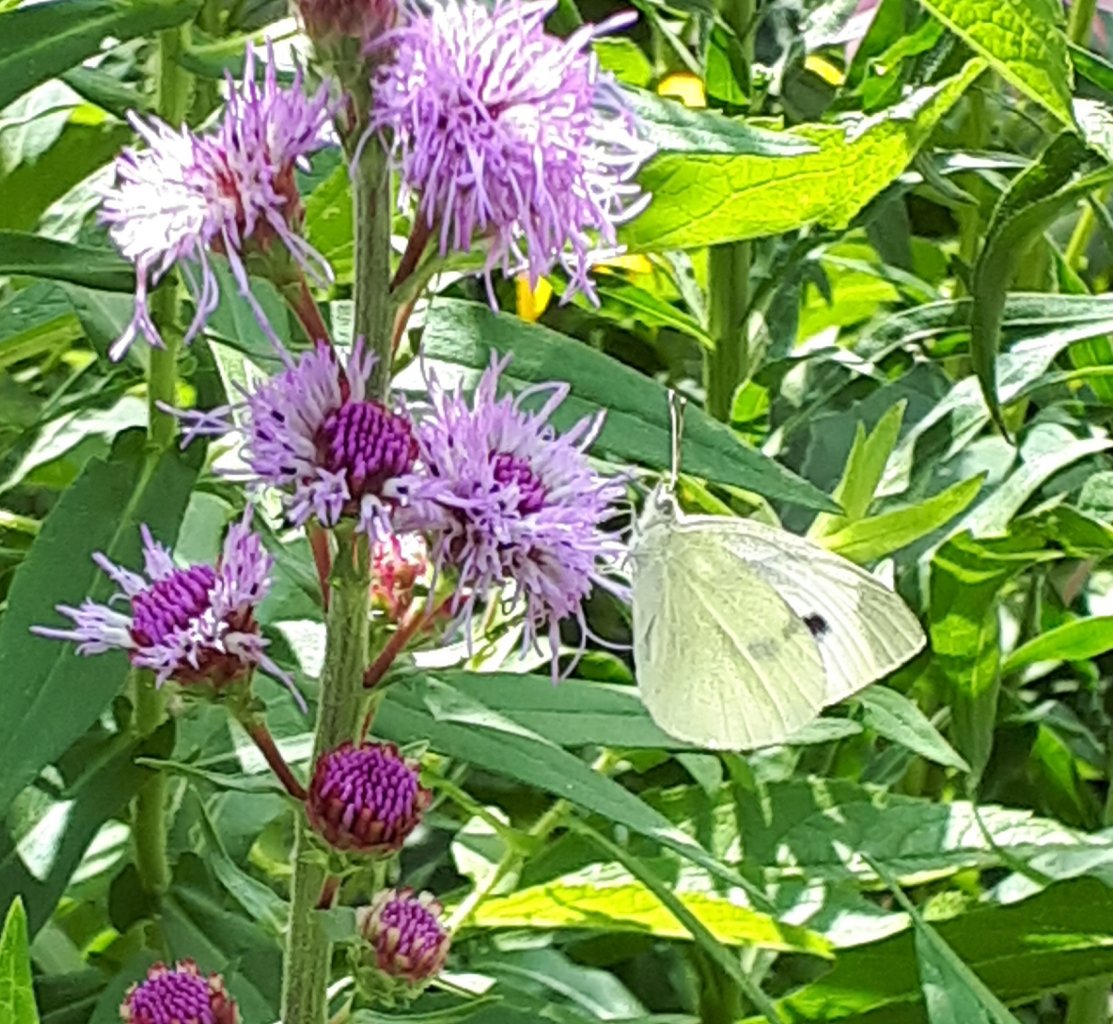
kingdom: Animalia
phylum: Arthropoda
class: Insecta
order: Lepidoptera
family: Pieridae
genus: Pieris
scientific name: Pieris rapae
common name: Cabbage White
